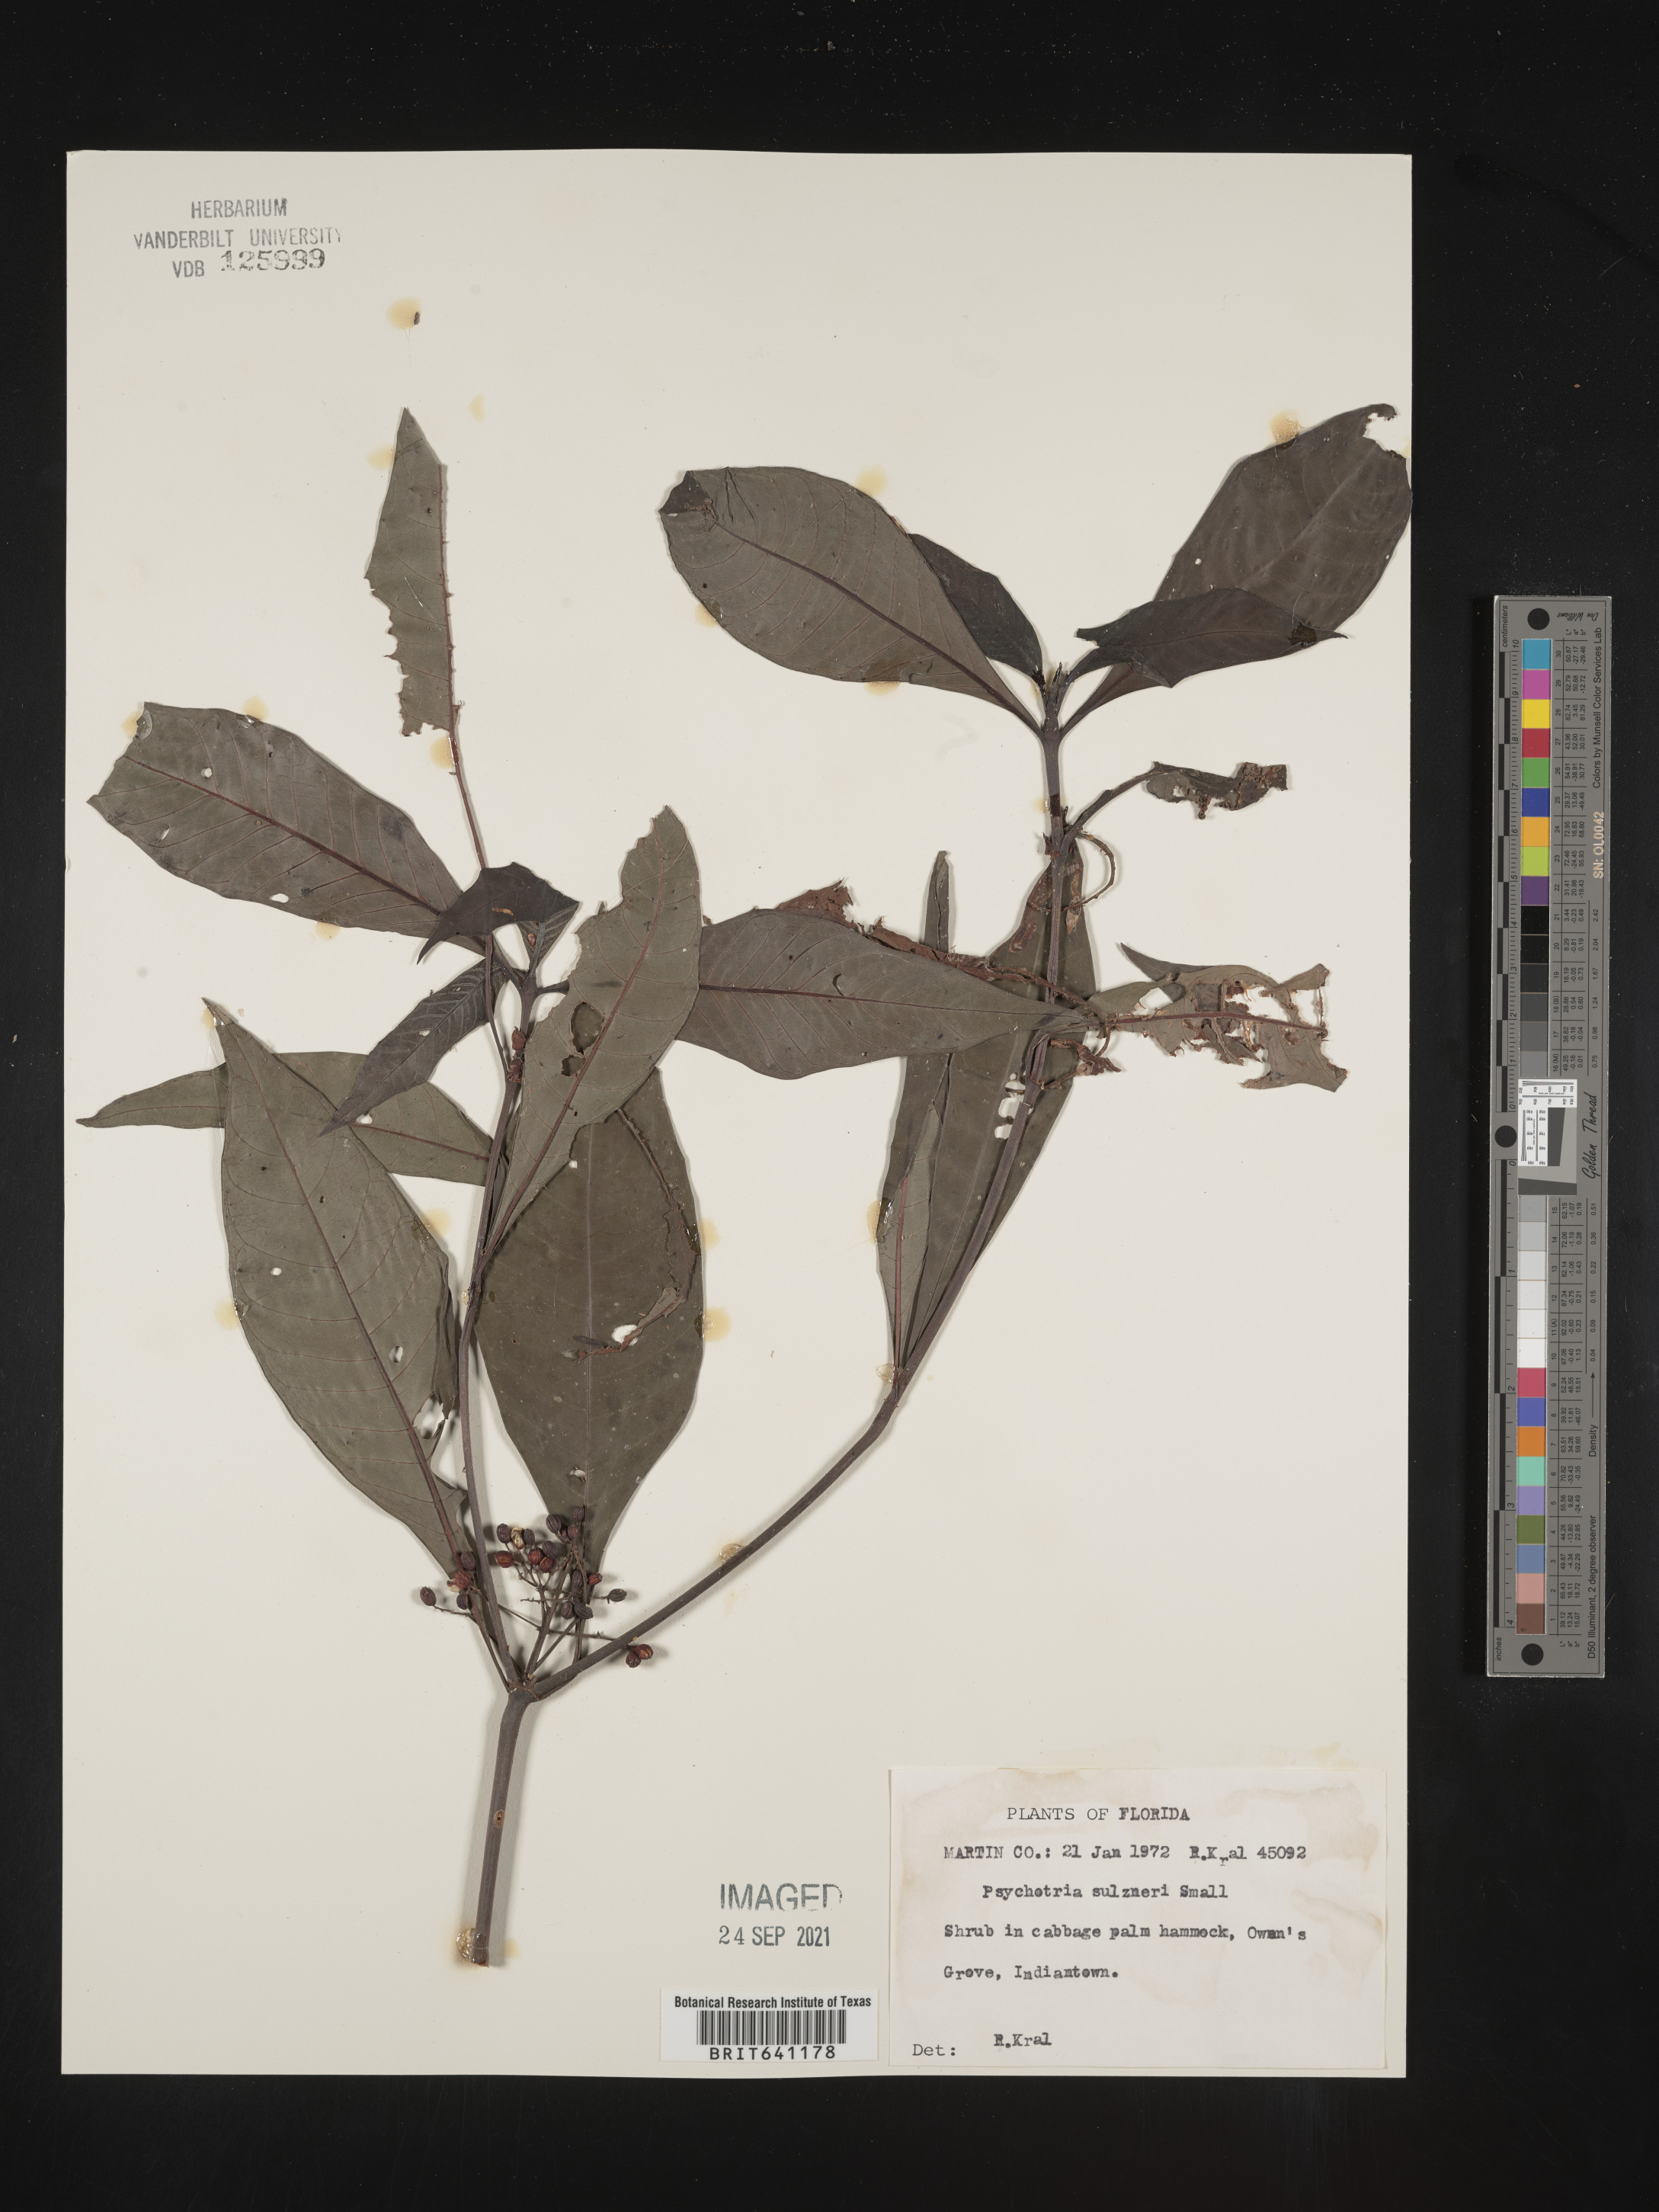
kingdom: Plantae
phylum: Tracheophyta
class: Magnoliopsida
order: Gentianales
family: Rubiaceae
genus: Psychotria
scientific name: Psychotria tenuifolia
